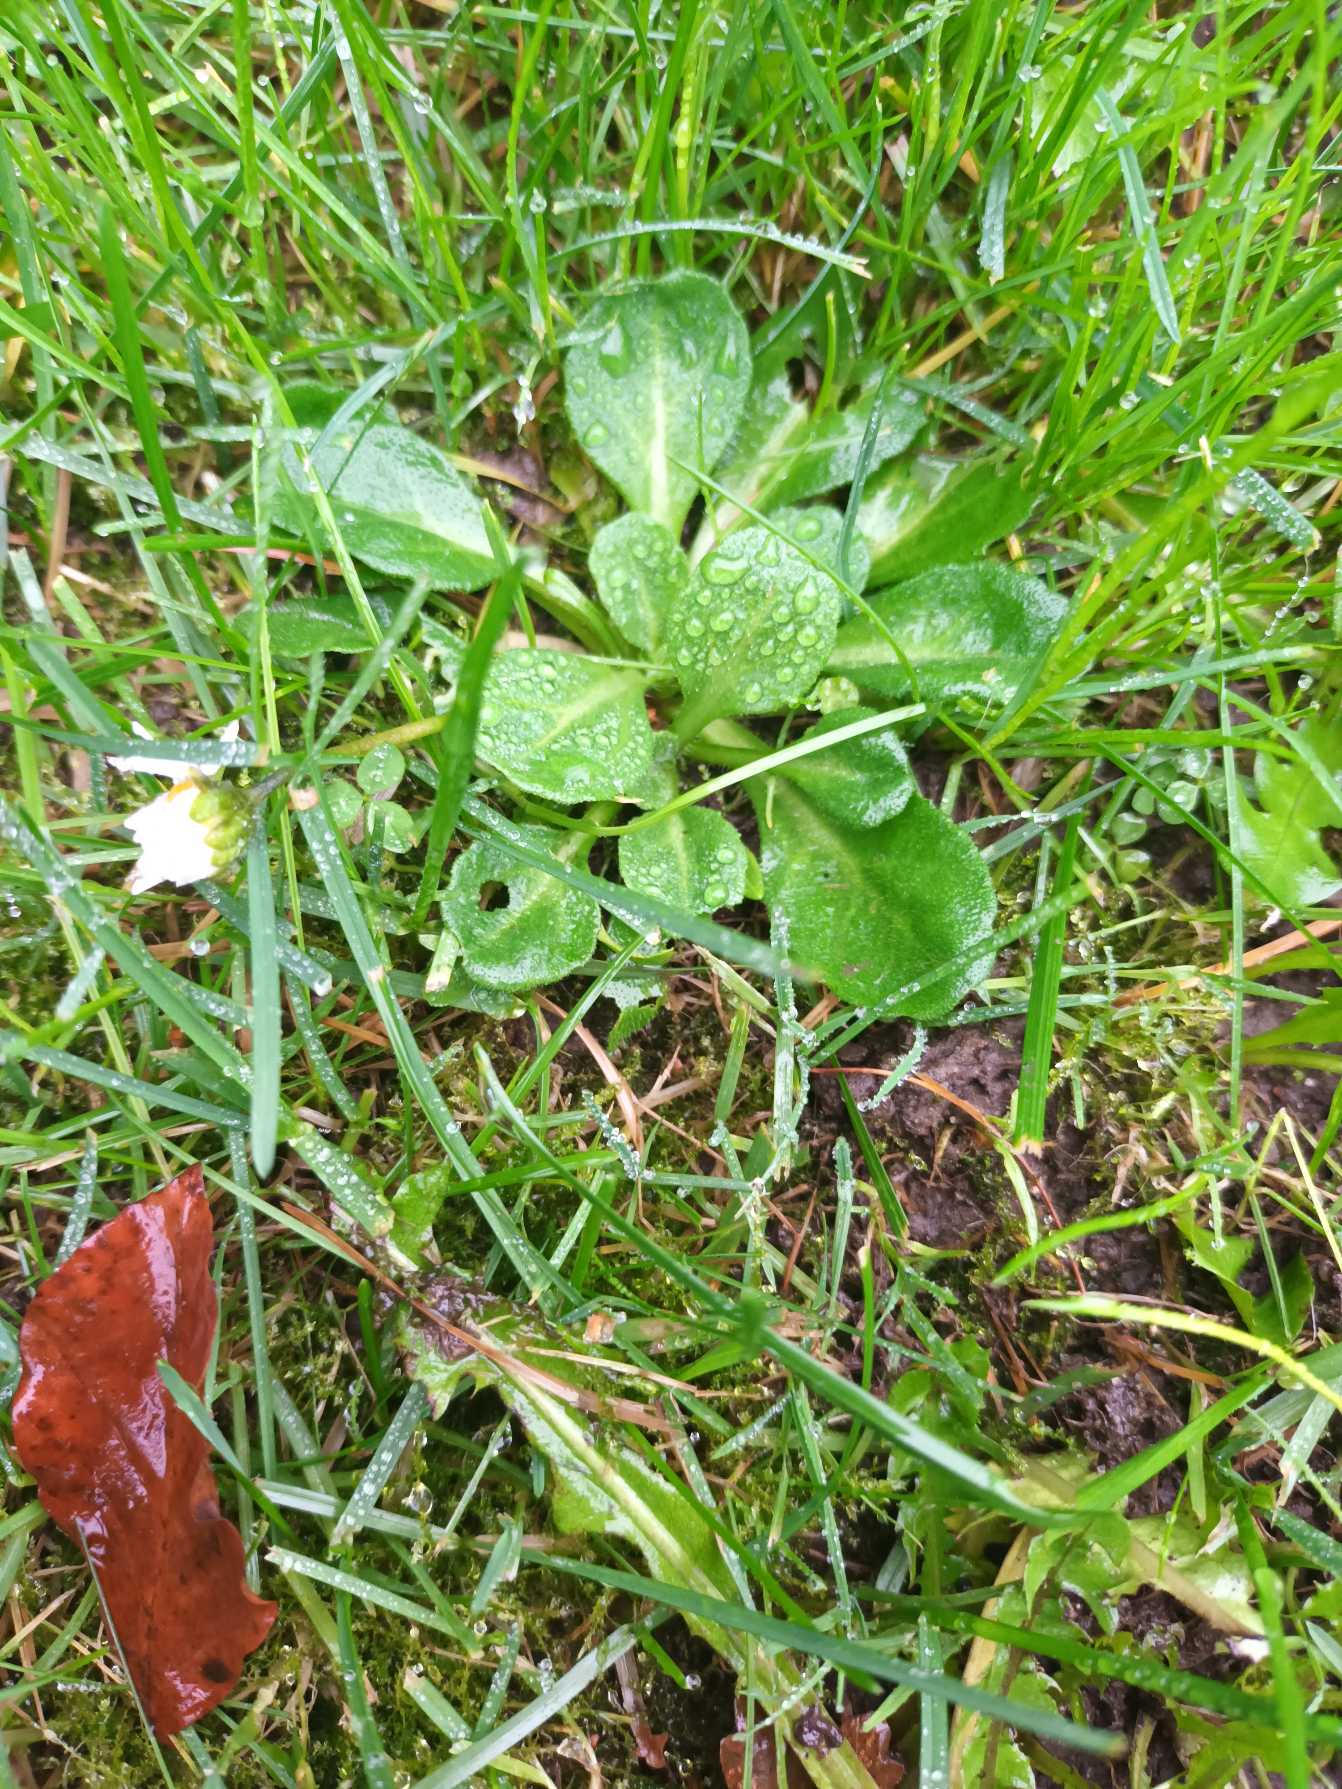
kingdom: Plantae
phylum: Tracheophyta
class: Magnoliopsida
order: Asterales
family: Asteraceae
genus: Bellis
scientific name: Bellis perennis
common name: Tusindfryd
